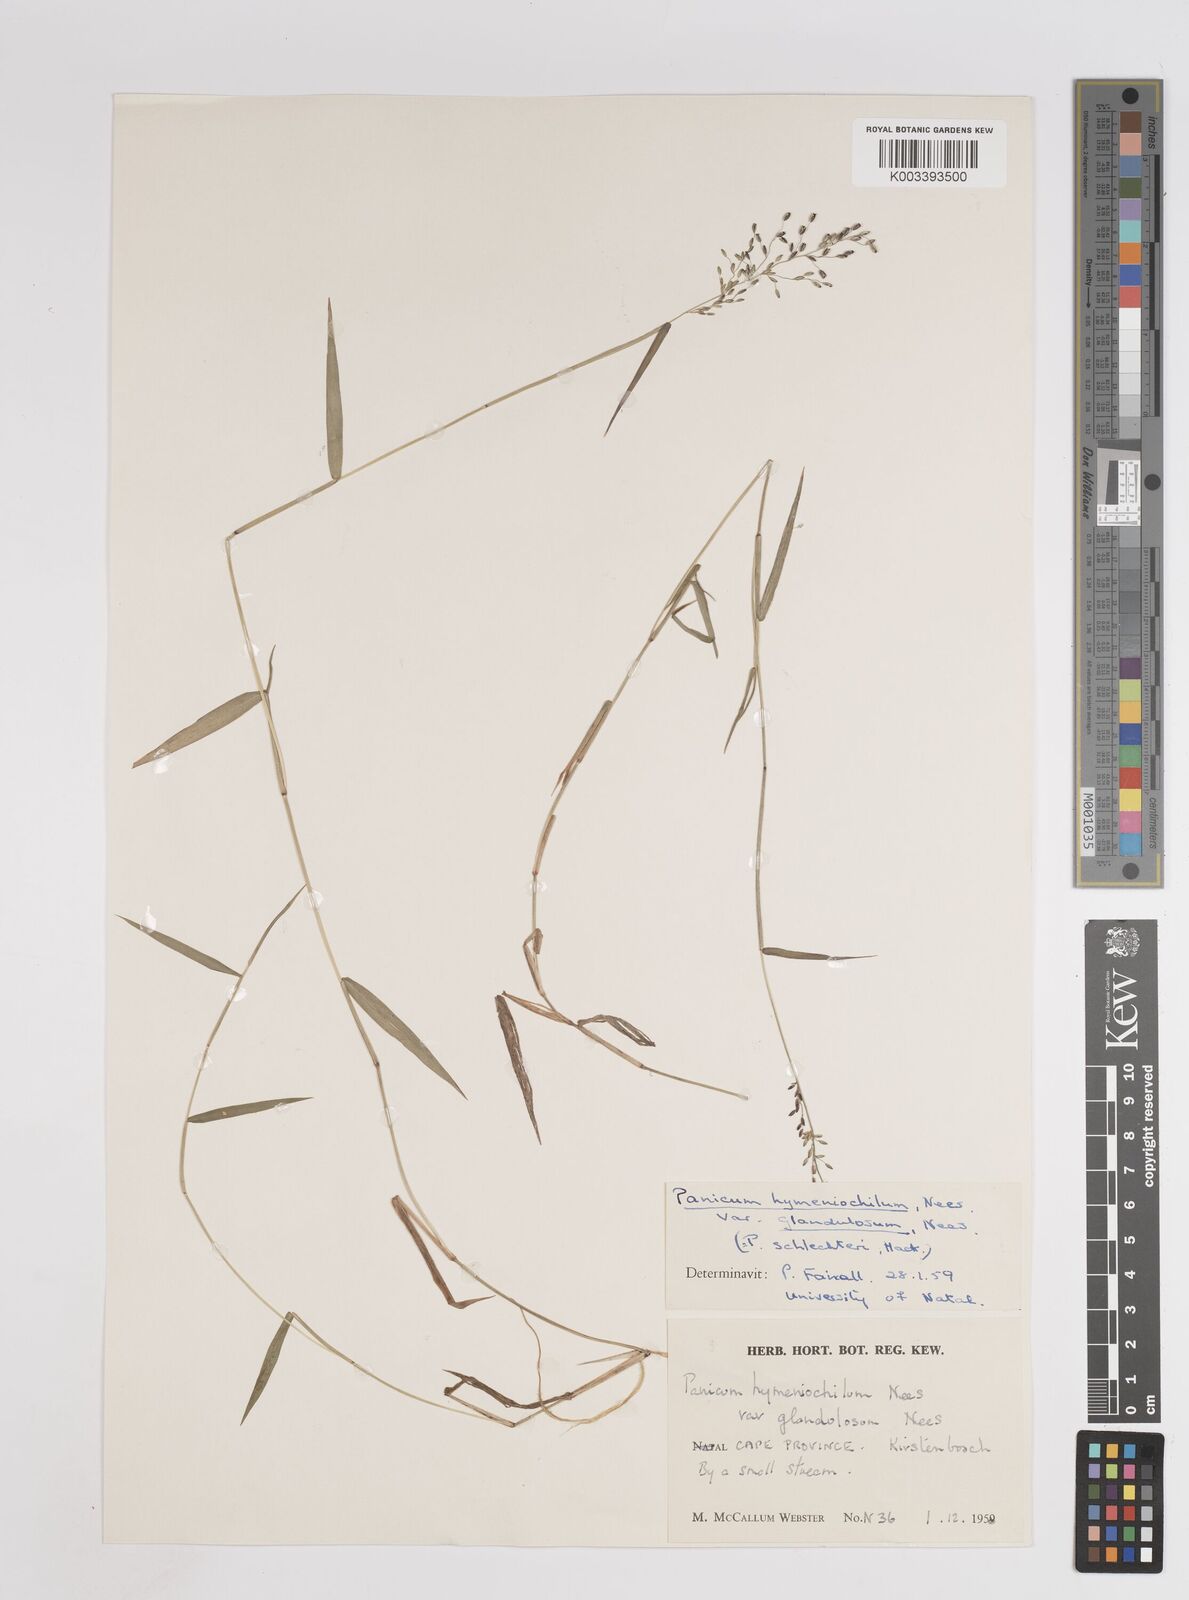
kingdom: Plantae
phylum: Tracheophyta
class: Liliopsida
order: Poales
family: Poaceae
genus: Adenochloa
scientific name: Adenochloa hymeniochila
